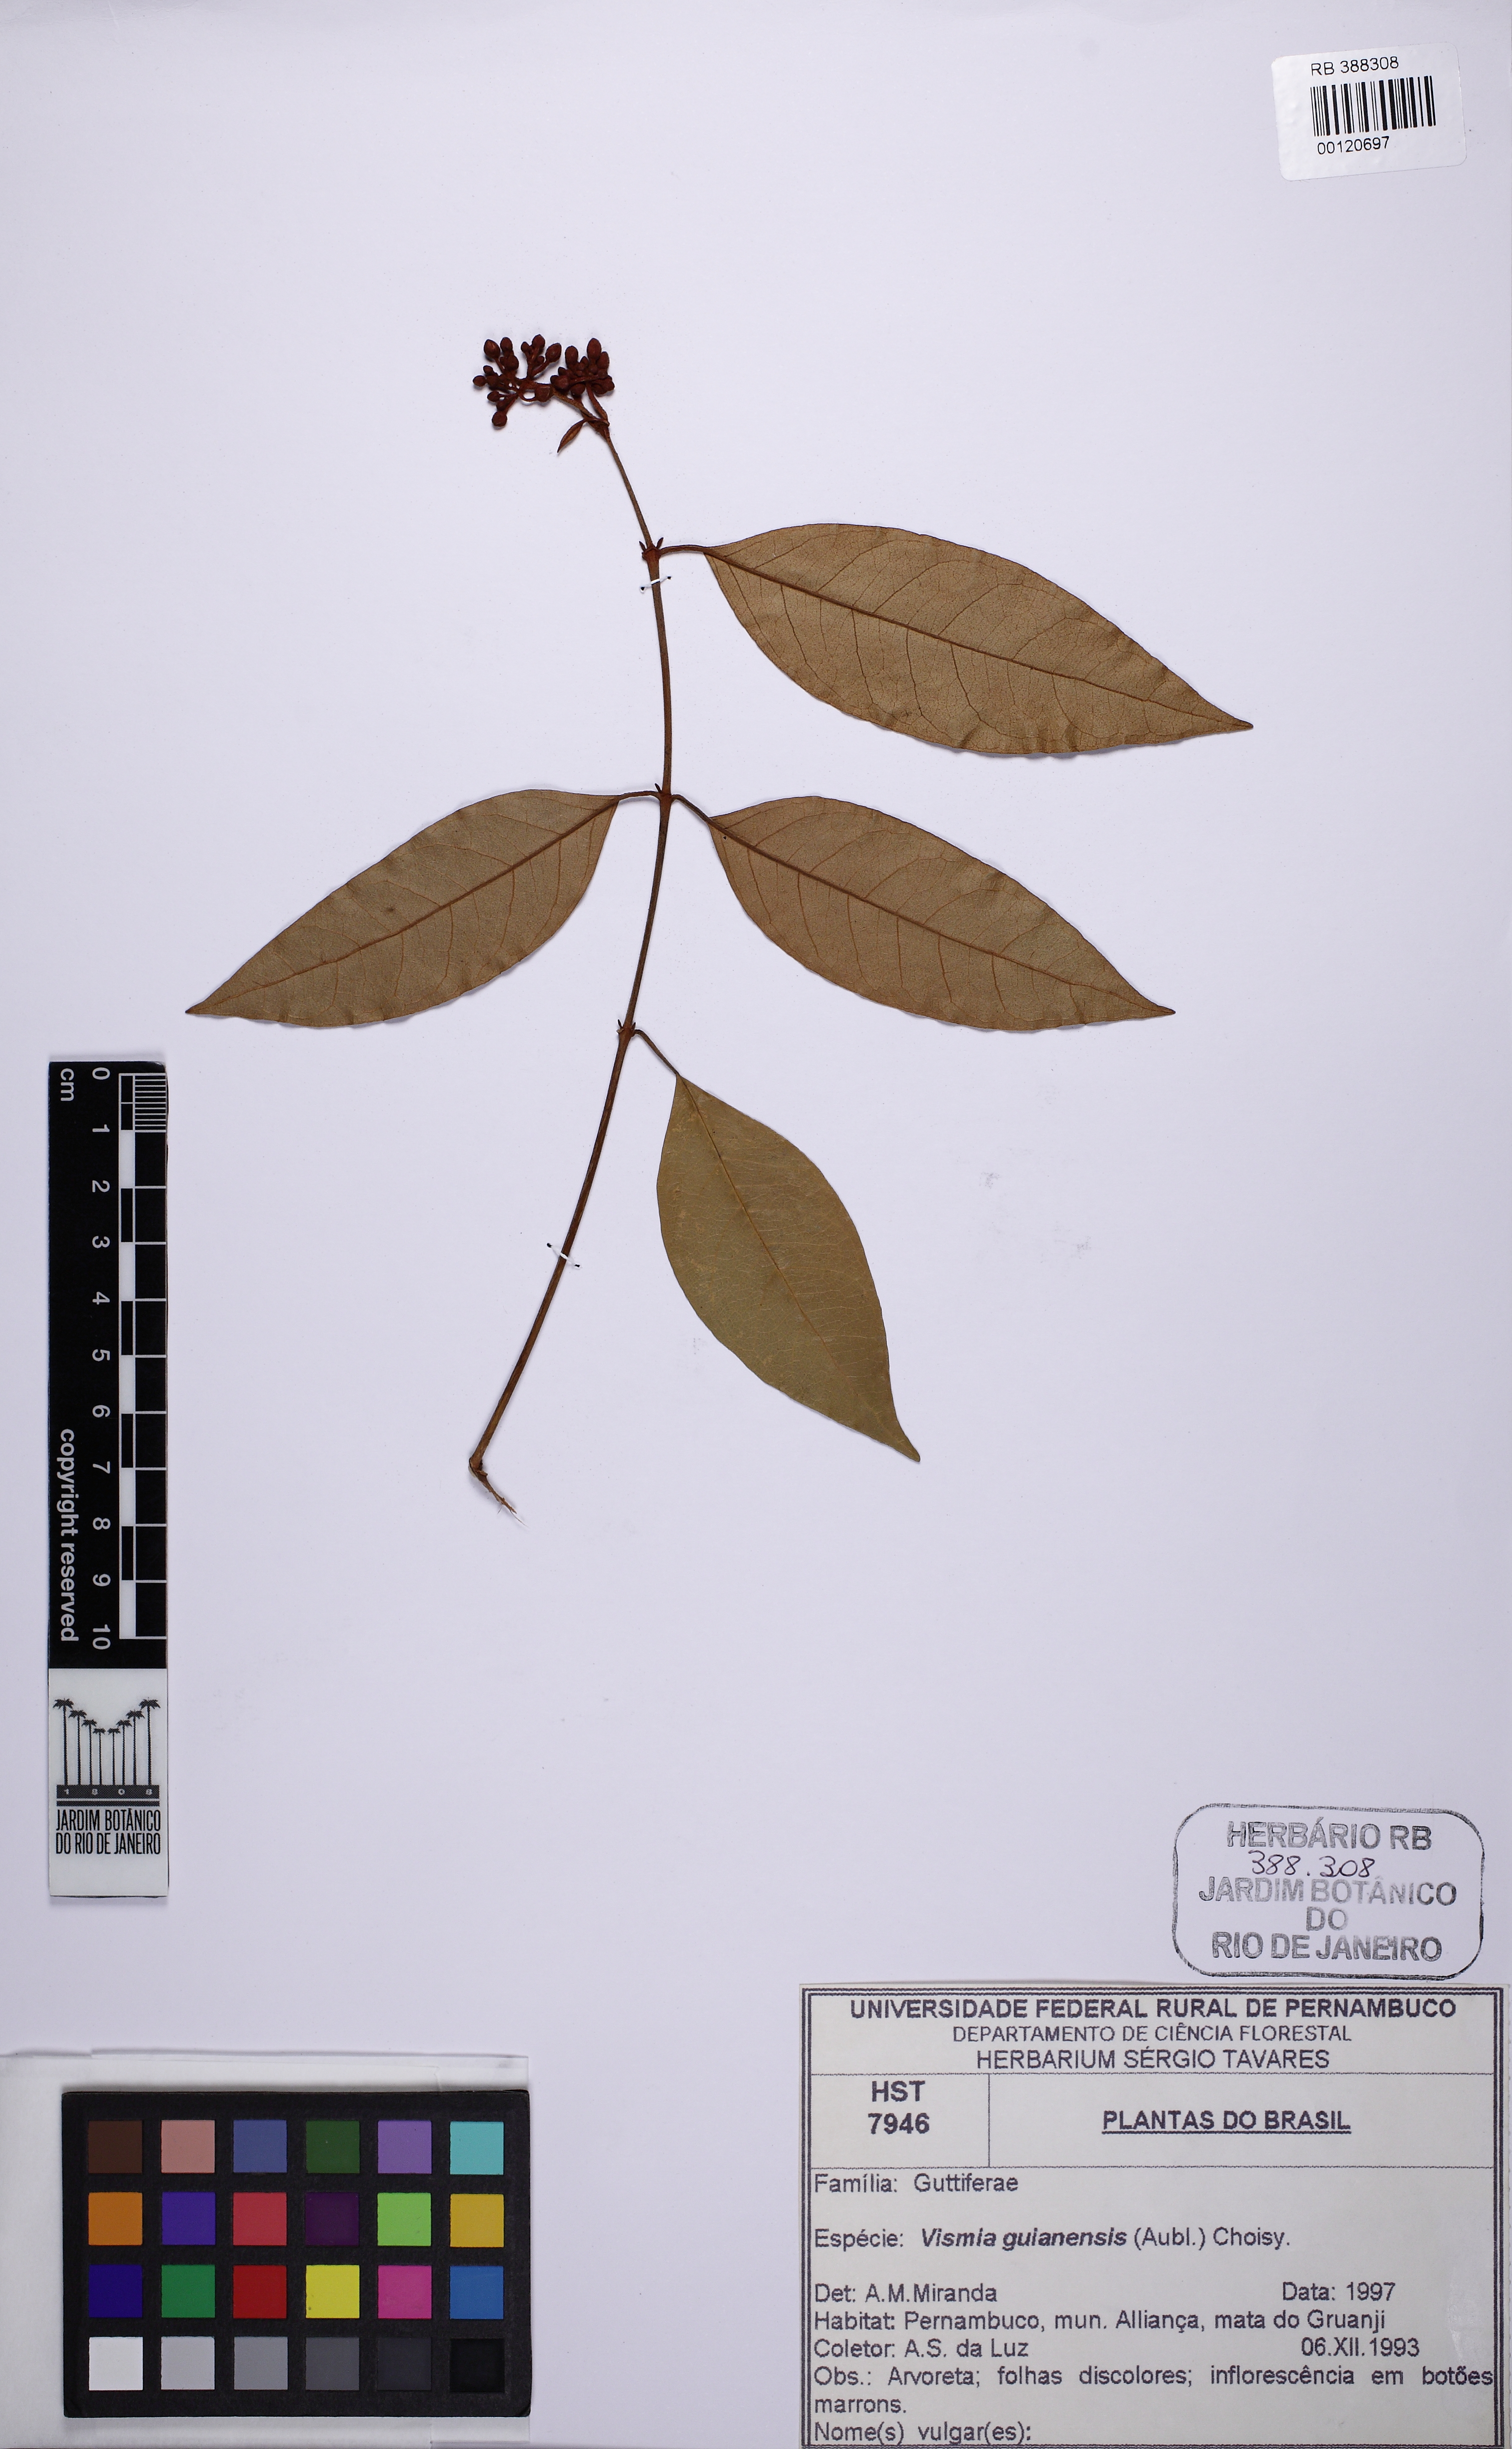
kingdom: Plantae
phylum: Tracheophyta
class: Magnoliopsida
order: Malpighiales
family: Hypericaceae
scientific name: Hypericaceae
